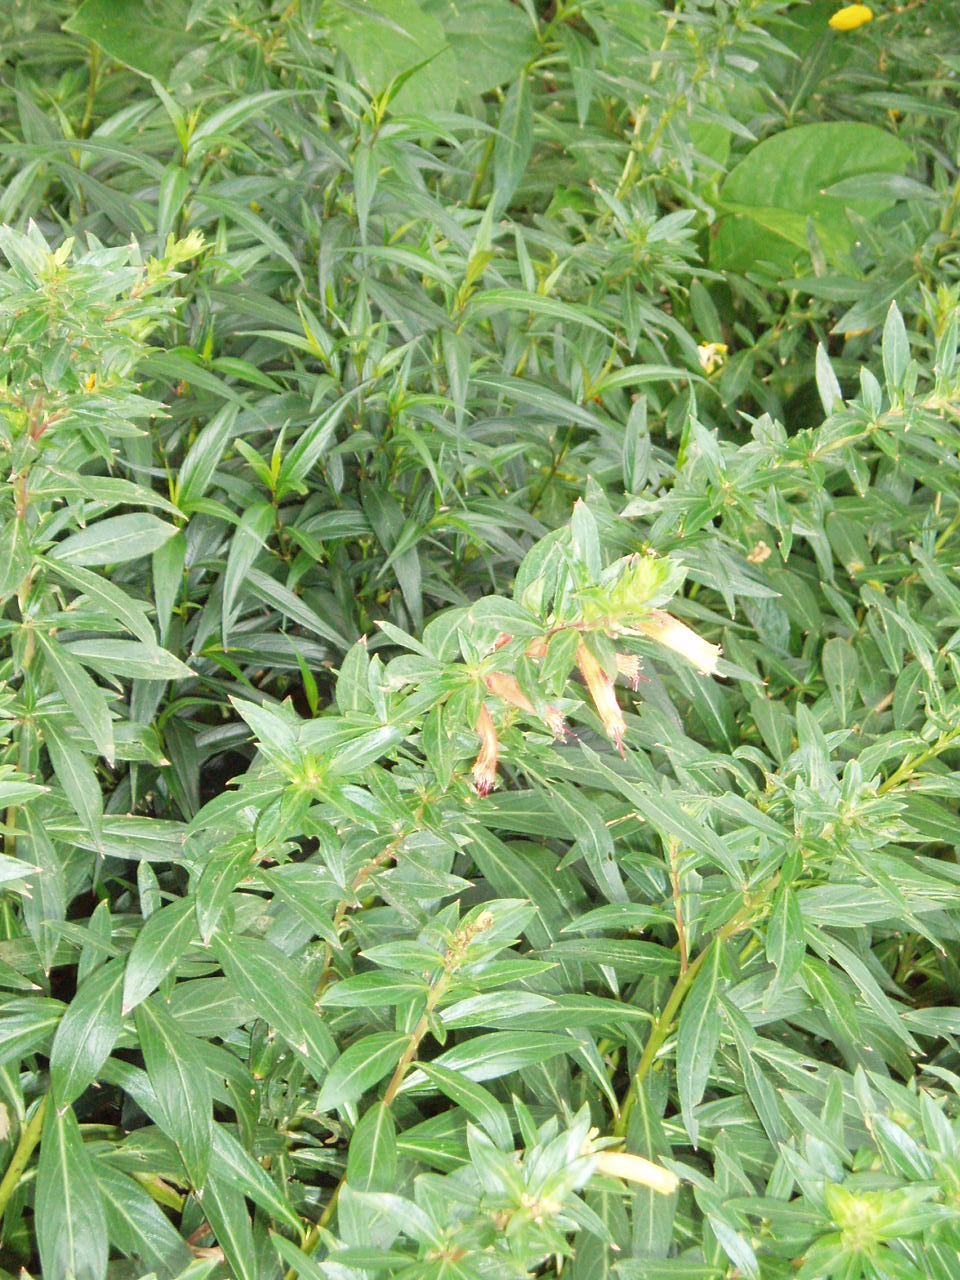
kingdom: Plantae
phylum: Tracheophyta
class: Magnoliopsida
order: Myrtales
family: Lythraceae
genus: Cuphea
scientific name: Cuphea micropetala
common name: Candycorn-plant
